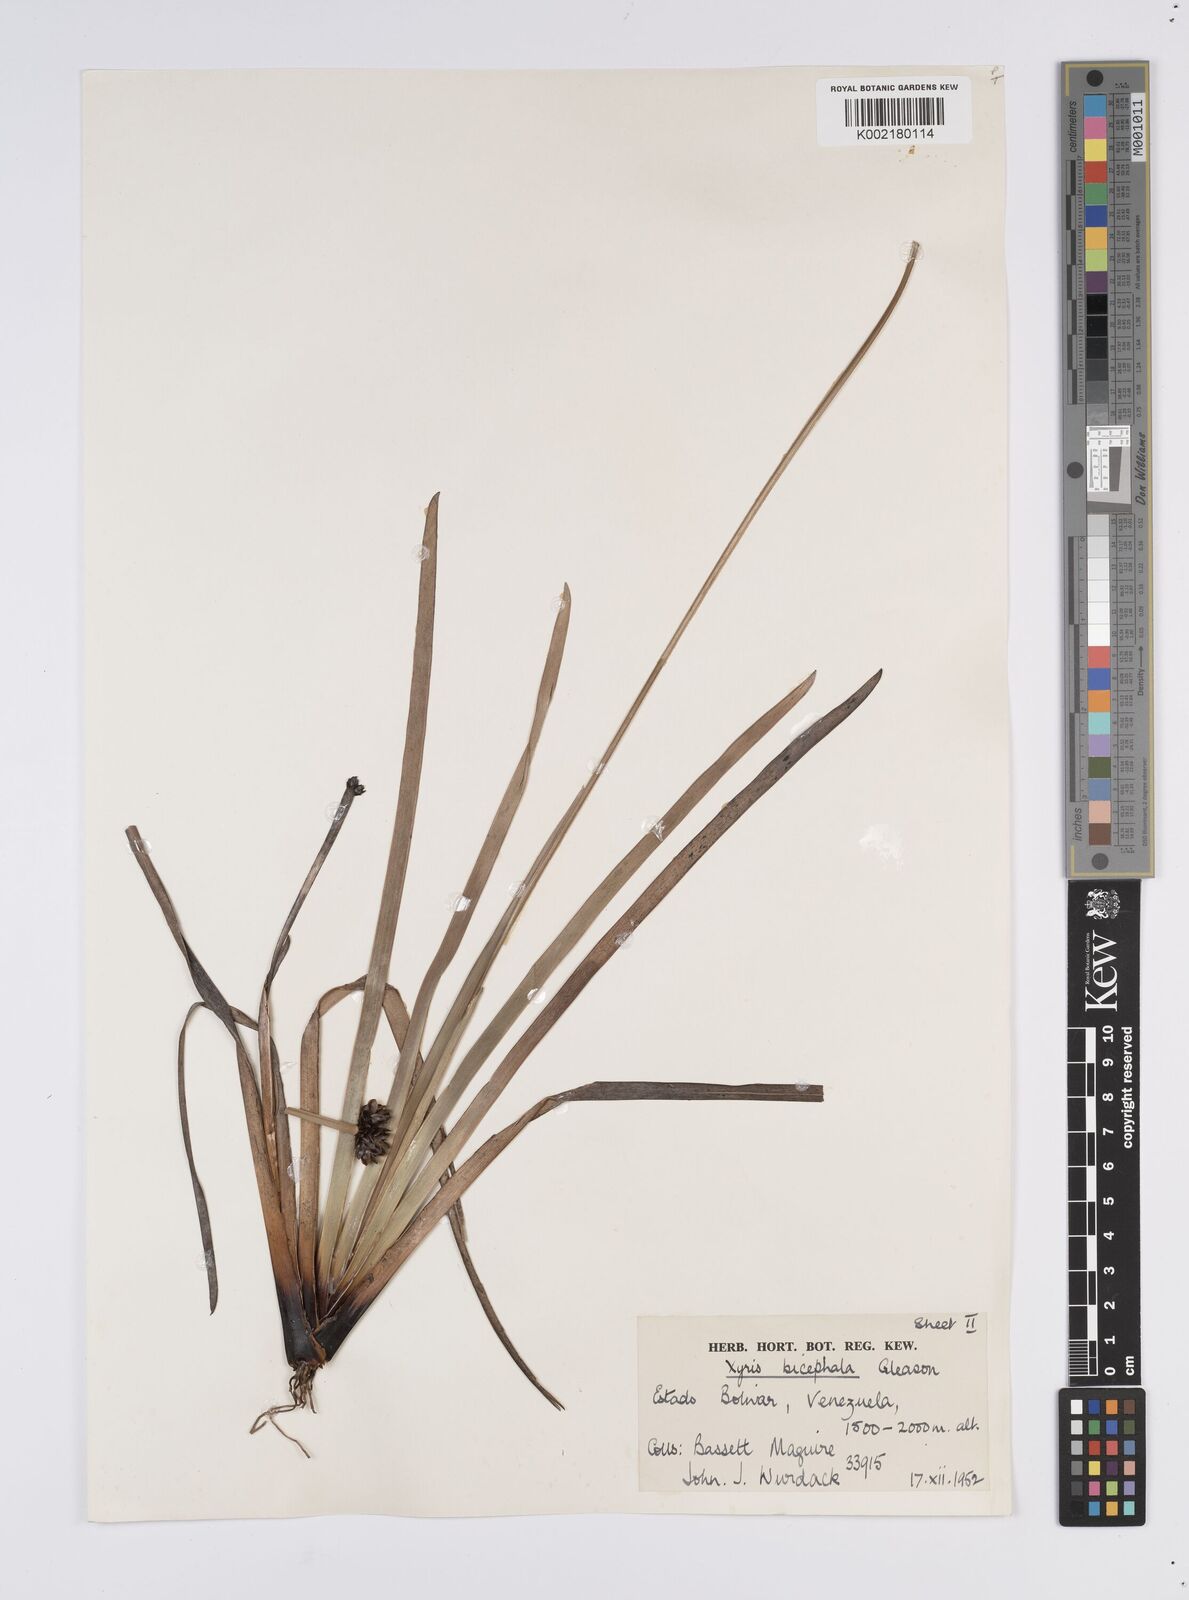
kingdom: Plantae
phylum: Tracheophyta
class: Liliopsida
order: Poales
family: Xyridaceae
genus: Xyris
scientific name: Xyris bicephala
